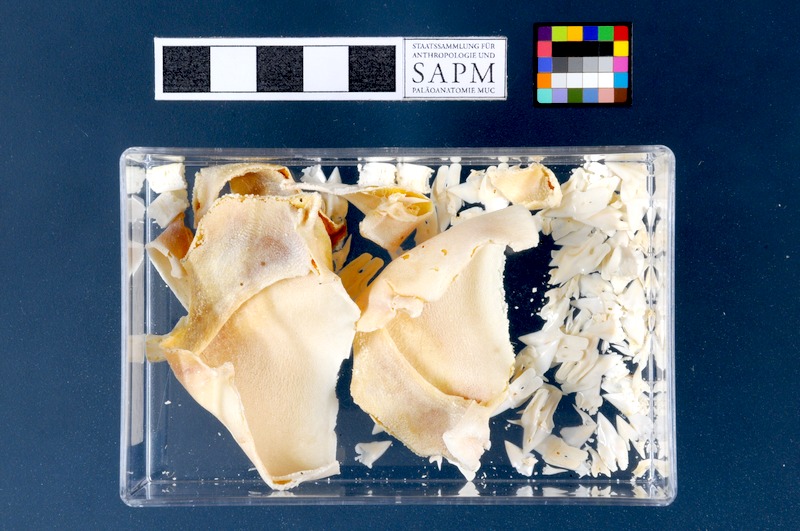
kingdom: Animalia
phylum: Chordata
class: Elasmobranchii
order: Squaliformes
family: Etmopteridae
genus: Etmopterus
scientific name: Etmopterus spinax
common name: Velvet belly
